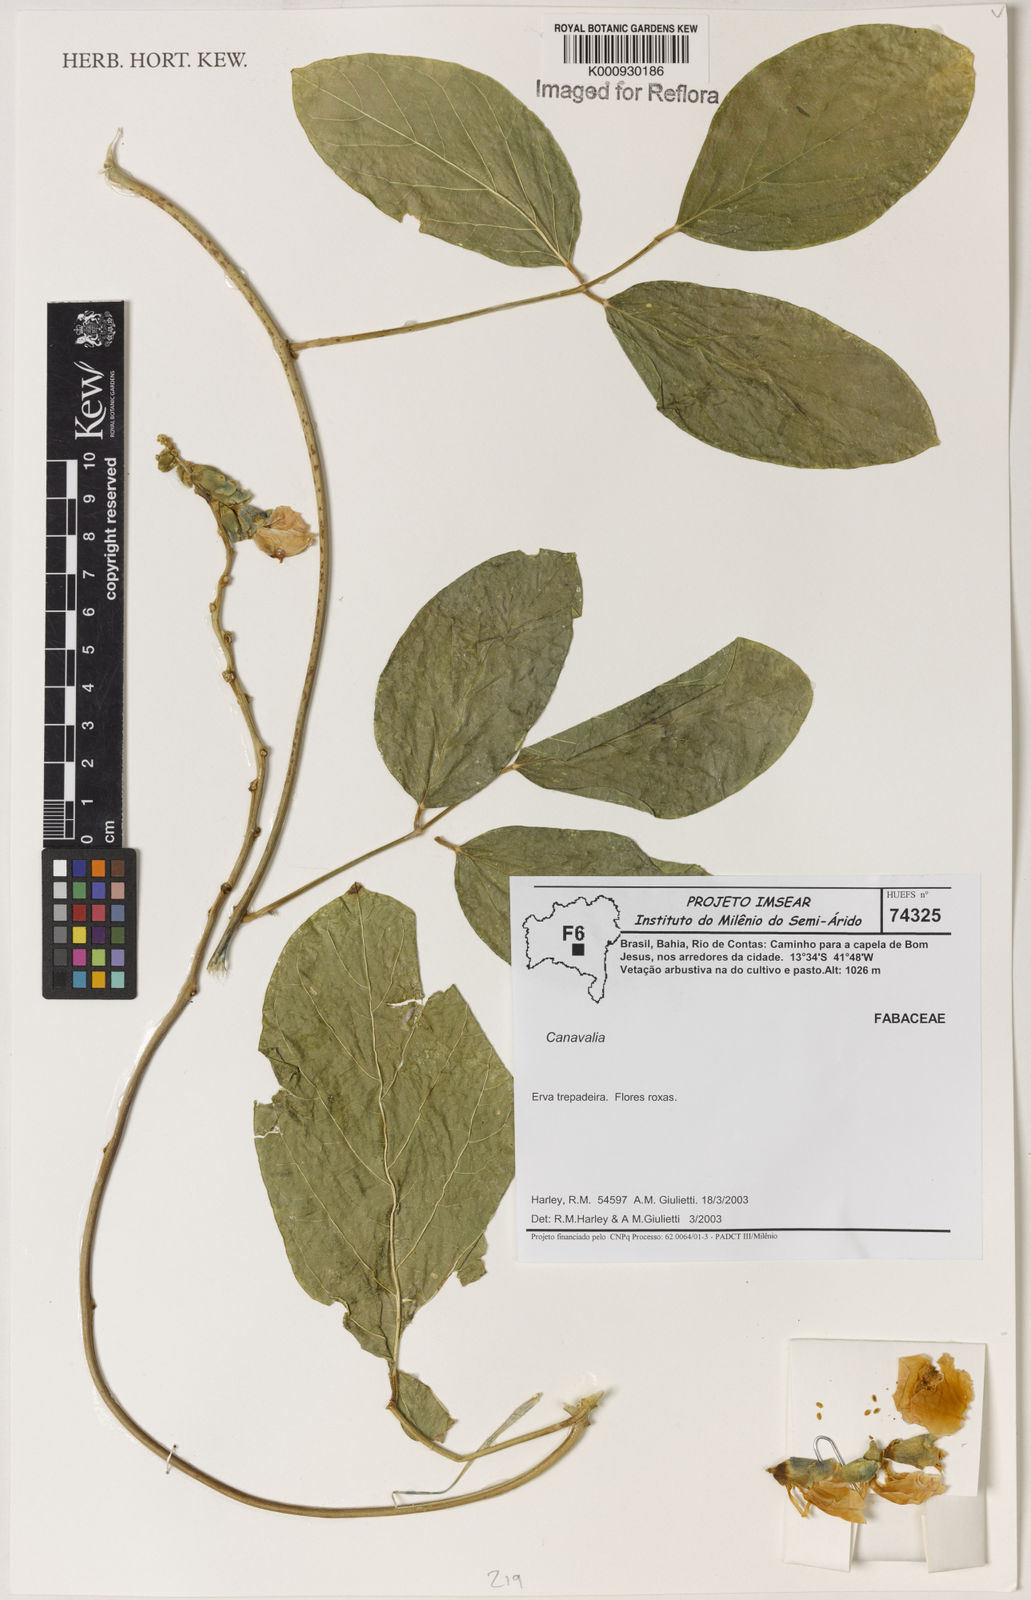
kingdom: Plantae
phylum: Tracheophyta
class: Magnoliopsida
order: Fabales
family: Fabaceae
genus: Canavalia
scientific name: Canavalia
